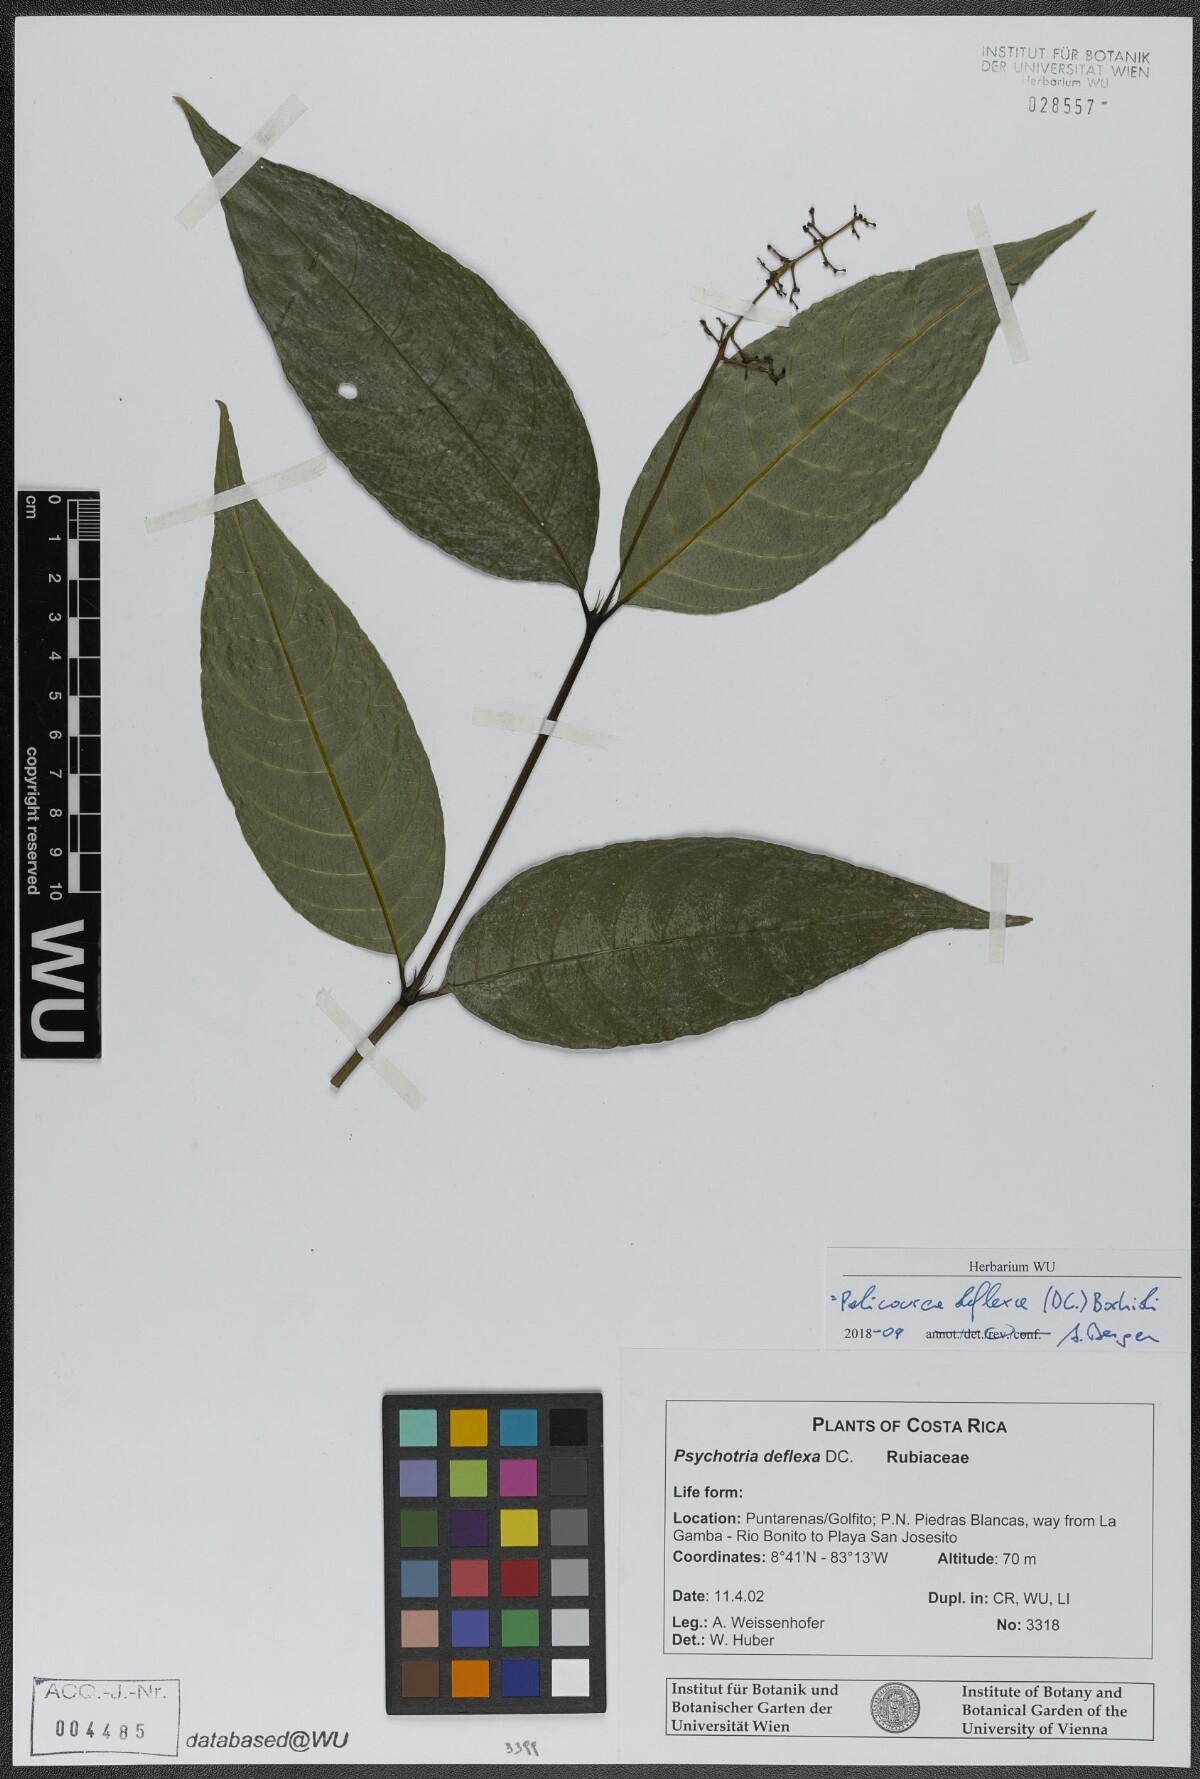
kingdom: Plantae
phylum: Tracheophyta
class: Magnoliopsida
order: Gentianales
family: Rubiaceae
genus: Palicourea
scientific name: Palicourea deflexa
